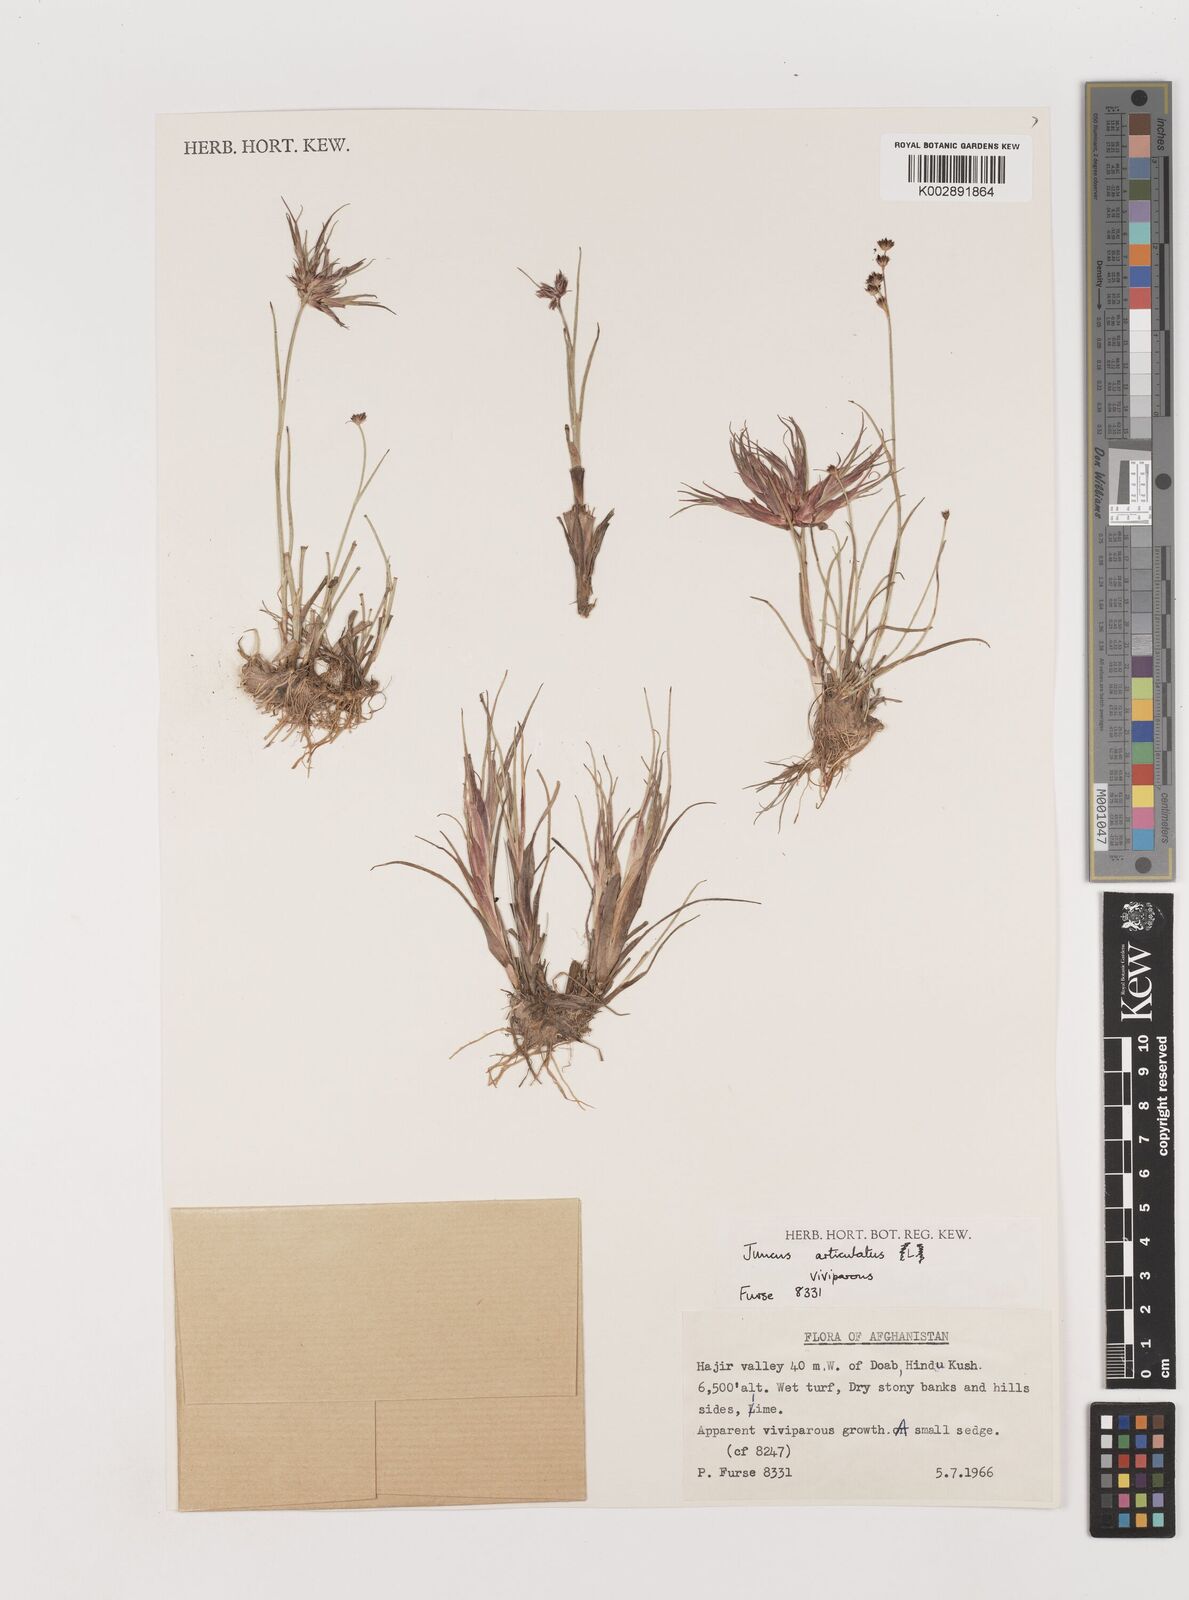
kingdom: Plantae
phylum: Tracheophyta
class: Liliopsida
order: Poales
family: Juncaceae
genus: Juncus
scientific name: Juncus articulatus
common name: Jointed rush
